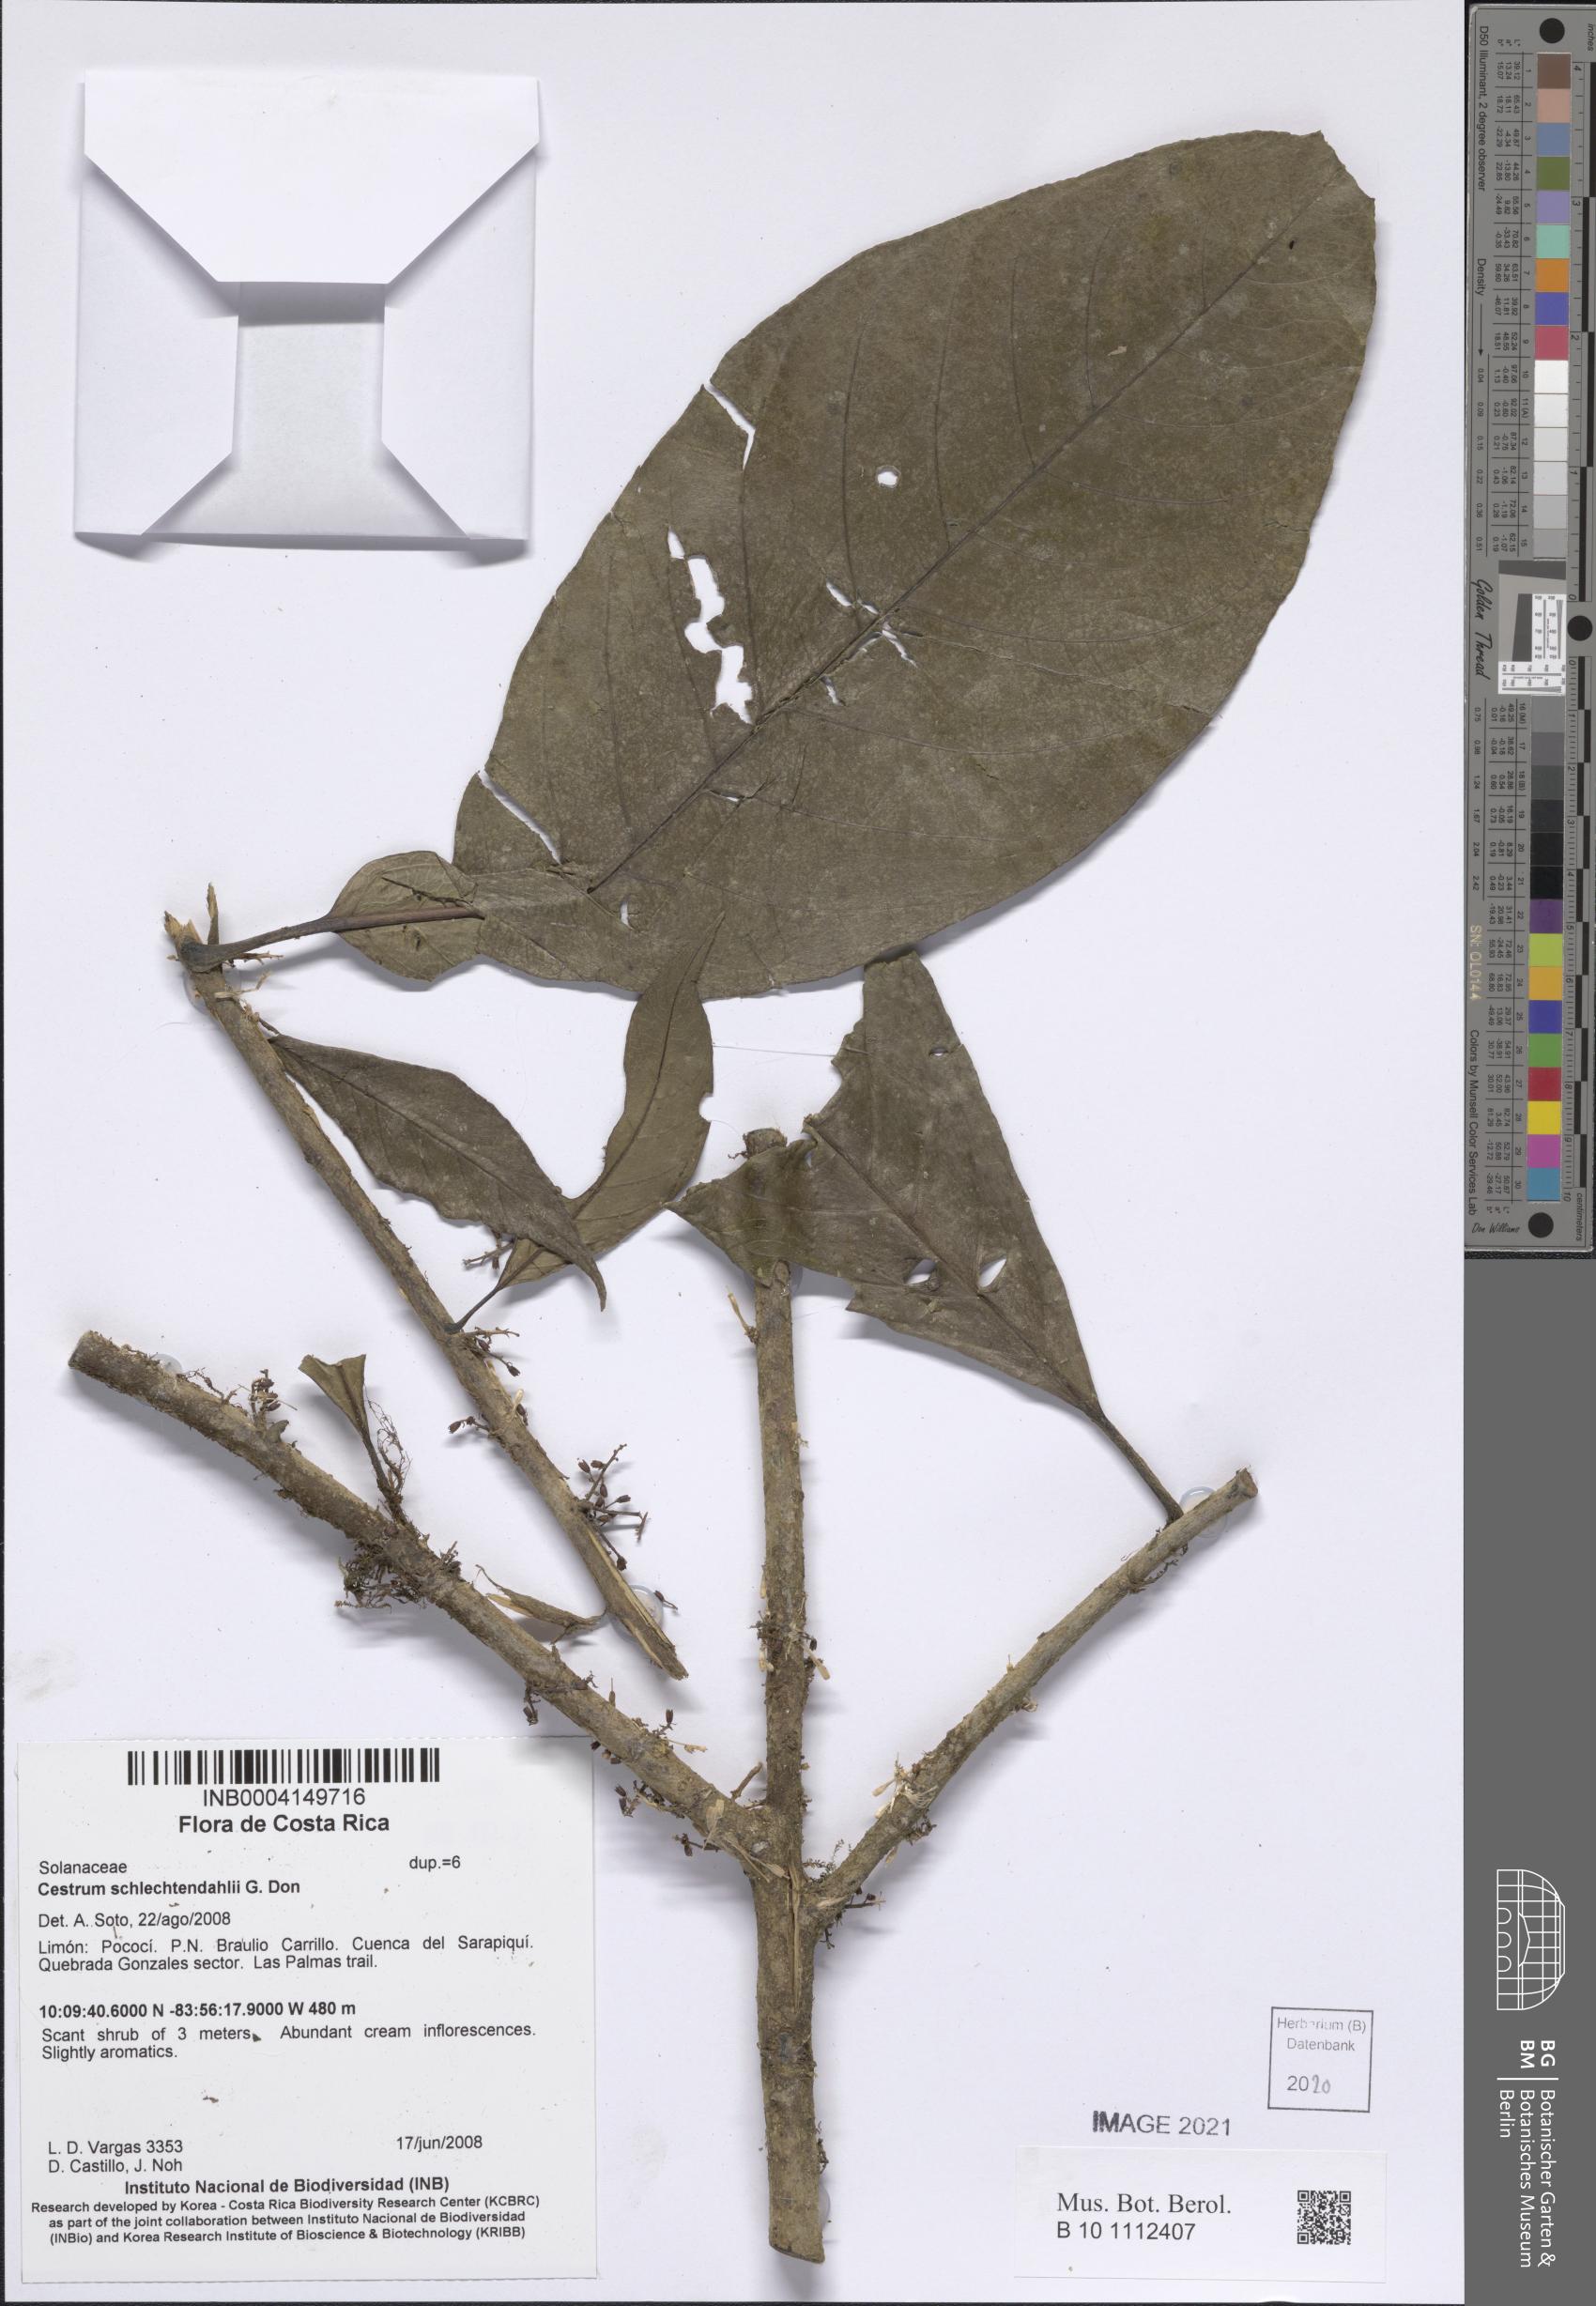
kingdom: Plantae
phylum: Tracheophyta
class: Magnoliopsida
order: Solanales
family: Solanaceae
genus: Cestrum
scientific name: Cestrum schlechtendalii
